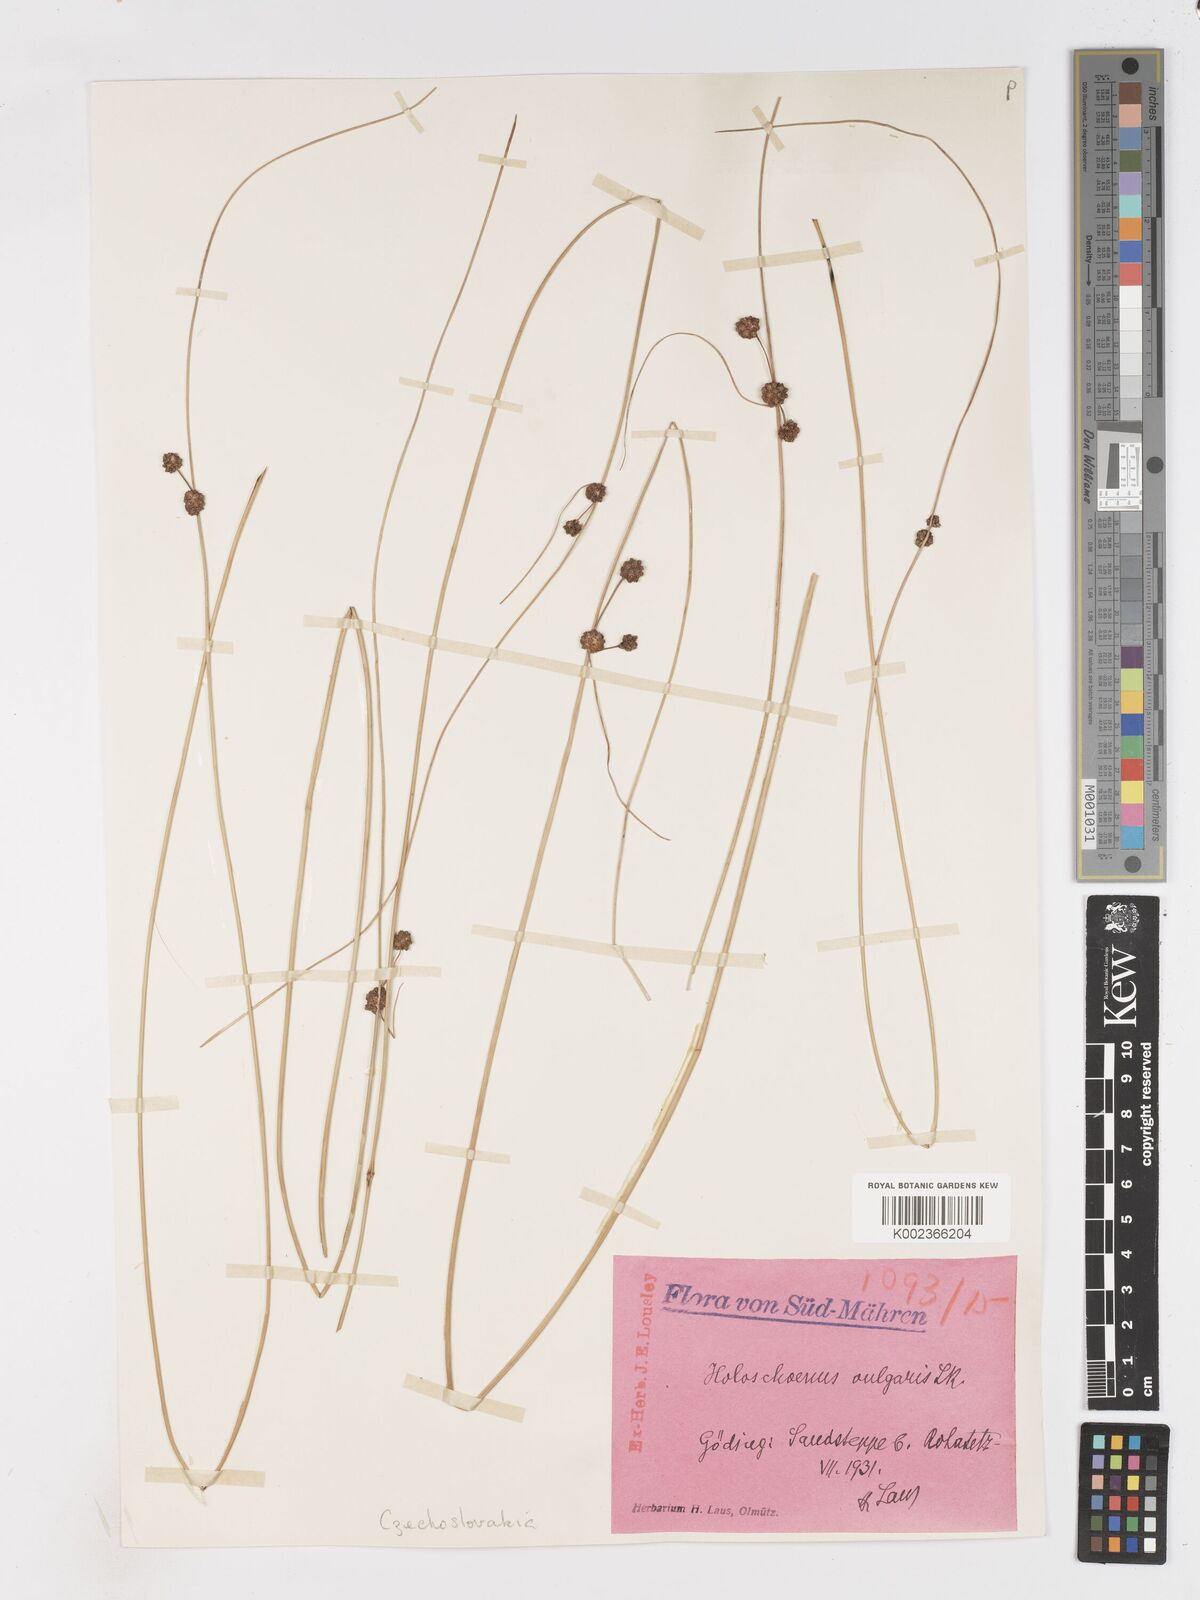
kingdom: Plantae
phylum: Tracheophyta
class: Liliopsida
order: Poales
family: Cyperaceae
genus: Scirpoides
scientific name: Scirpoides holoschoenus
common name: Round-headed club-rush
